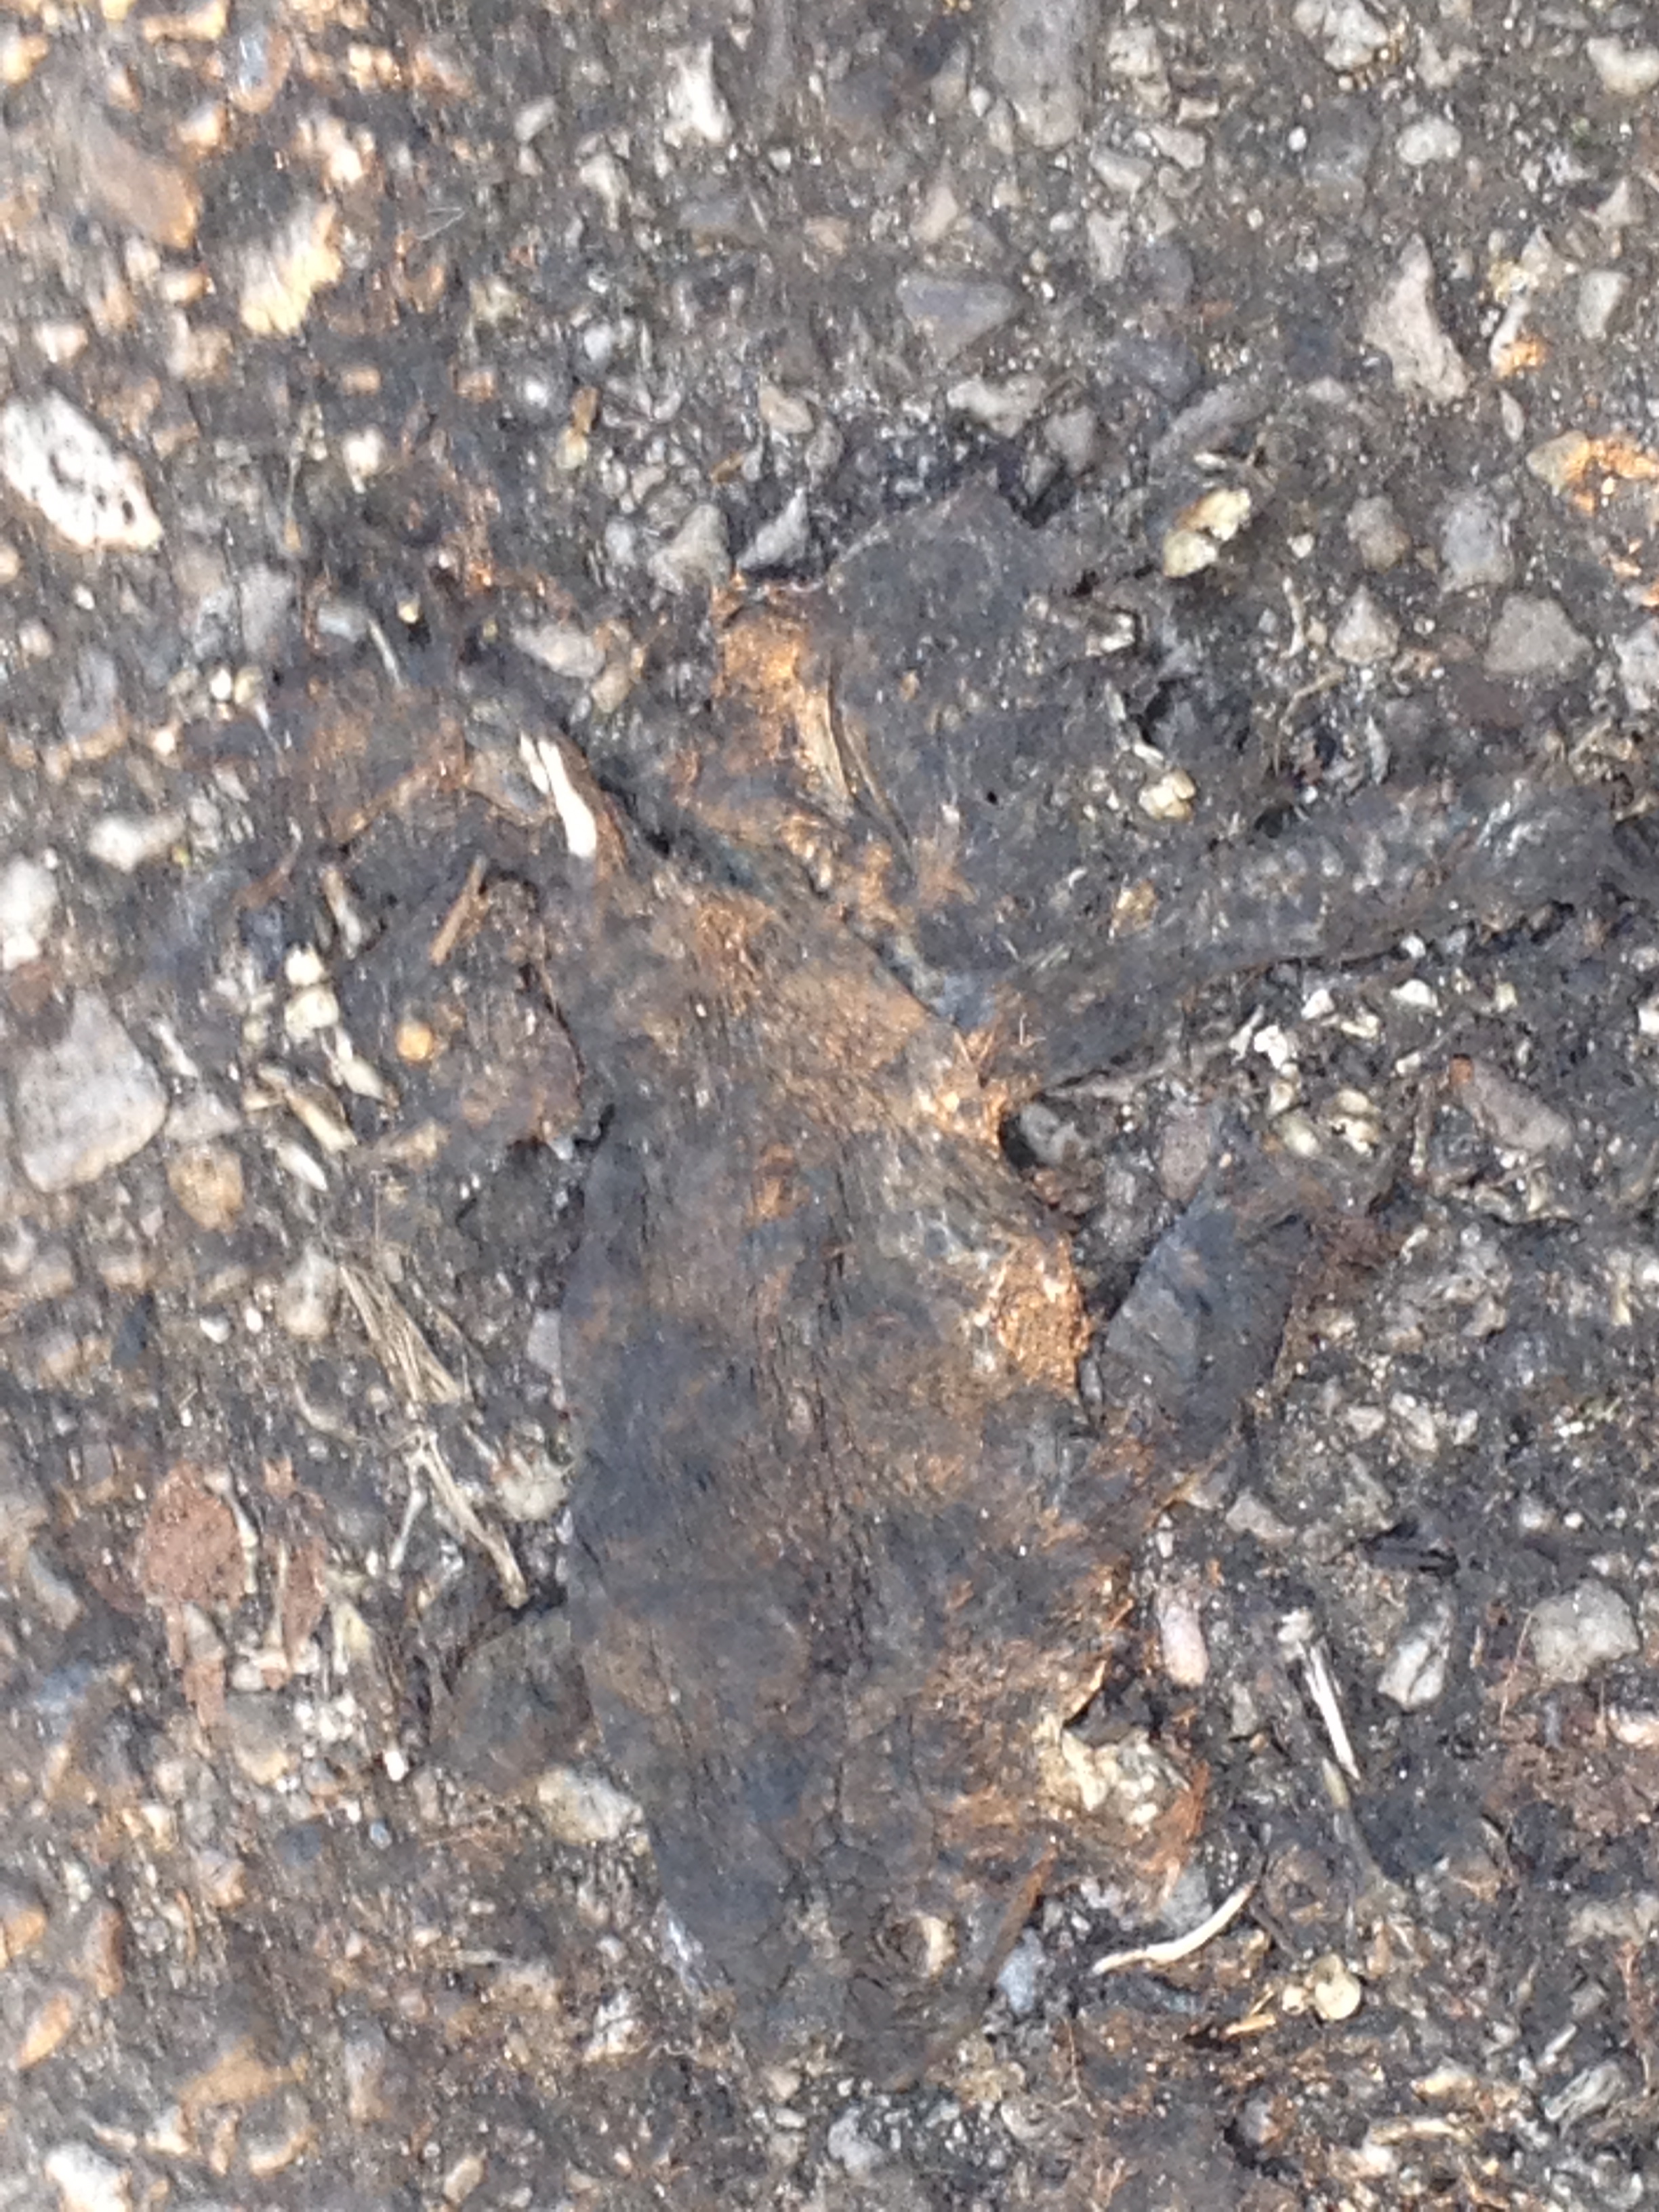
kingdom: Animalia
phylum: Chordata
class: Amphibia
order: Anura
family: Bufonidae
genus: Bufo
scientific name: Bufo bufo
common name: Common toad
